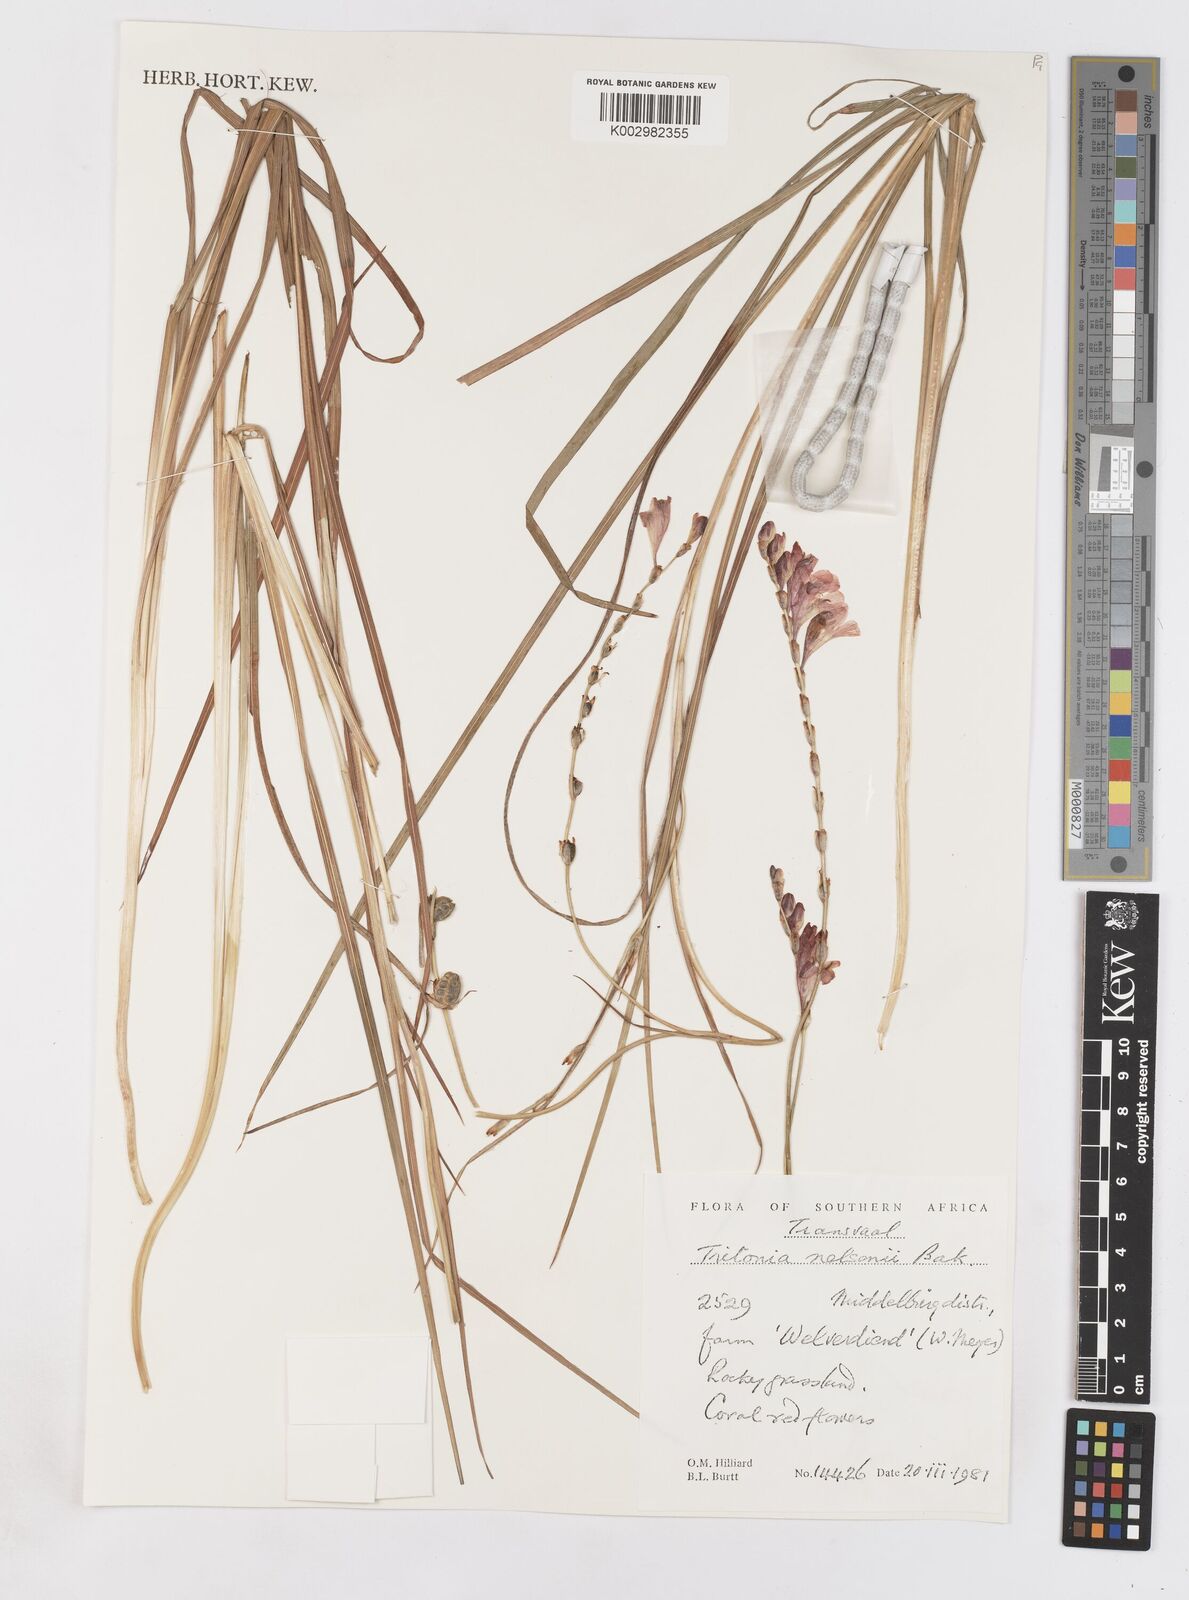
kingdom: Plantae
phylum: Tracheophyta
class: Liliopsida
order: Asparagales
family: Iridaceae
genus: Tritonia
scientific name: Tritonia nelsonii
